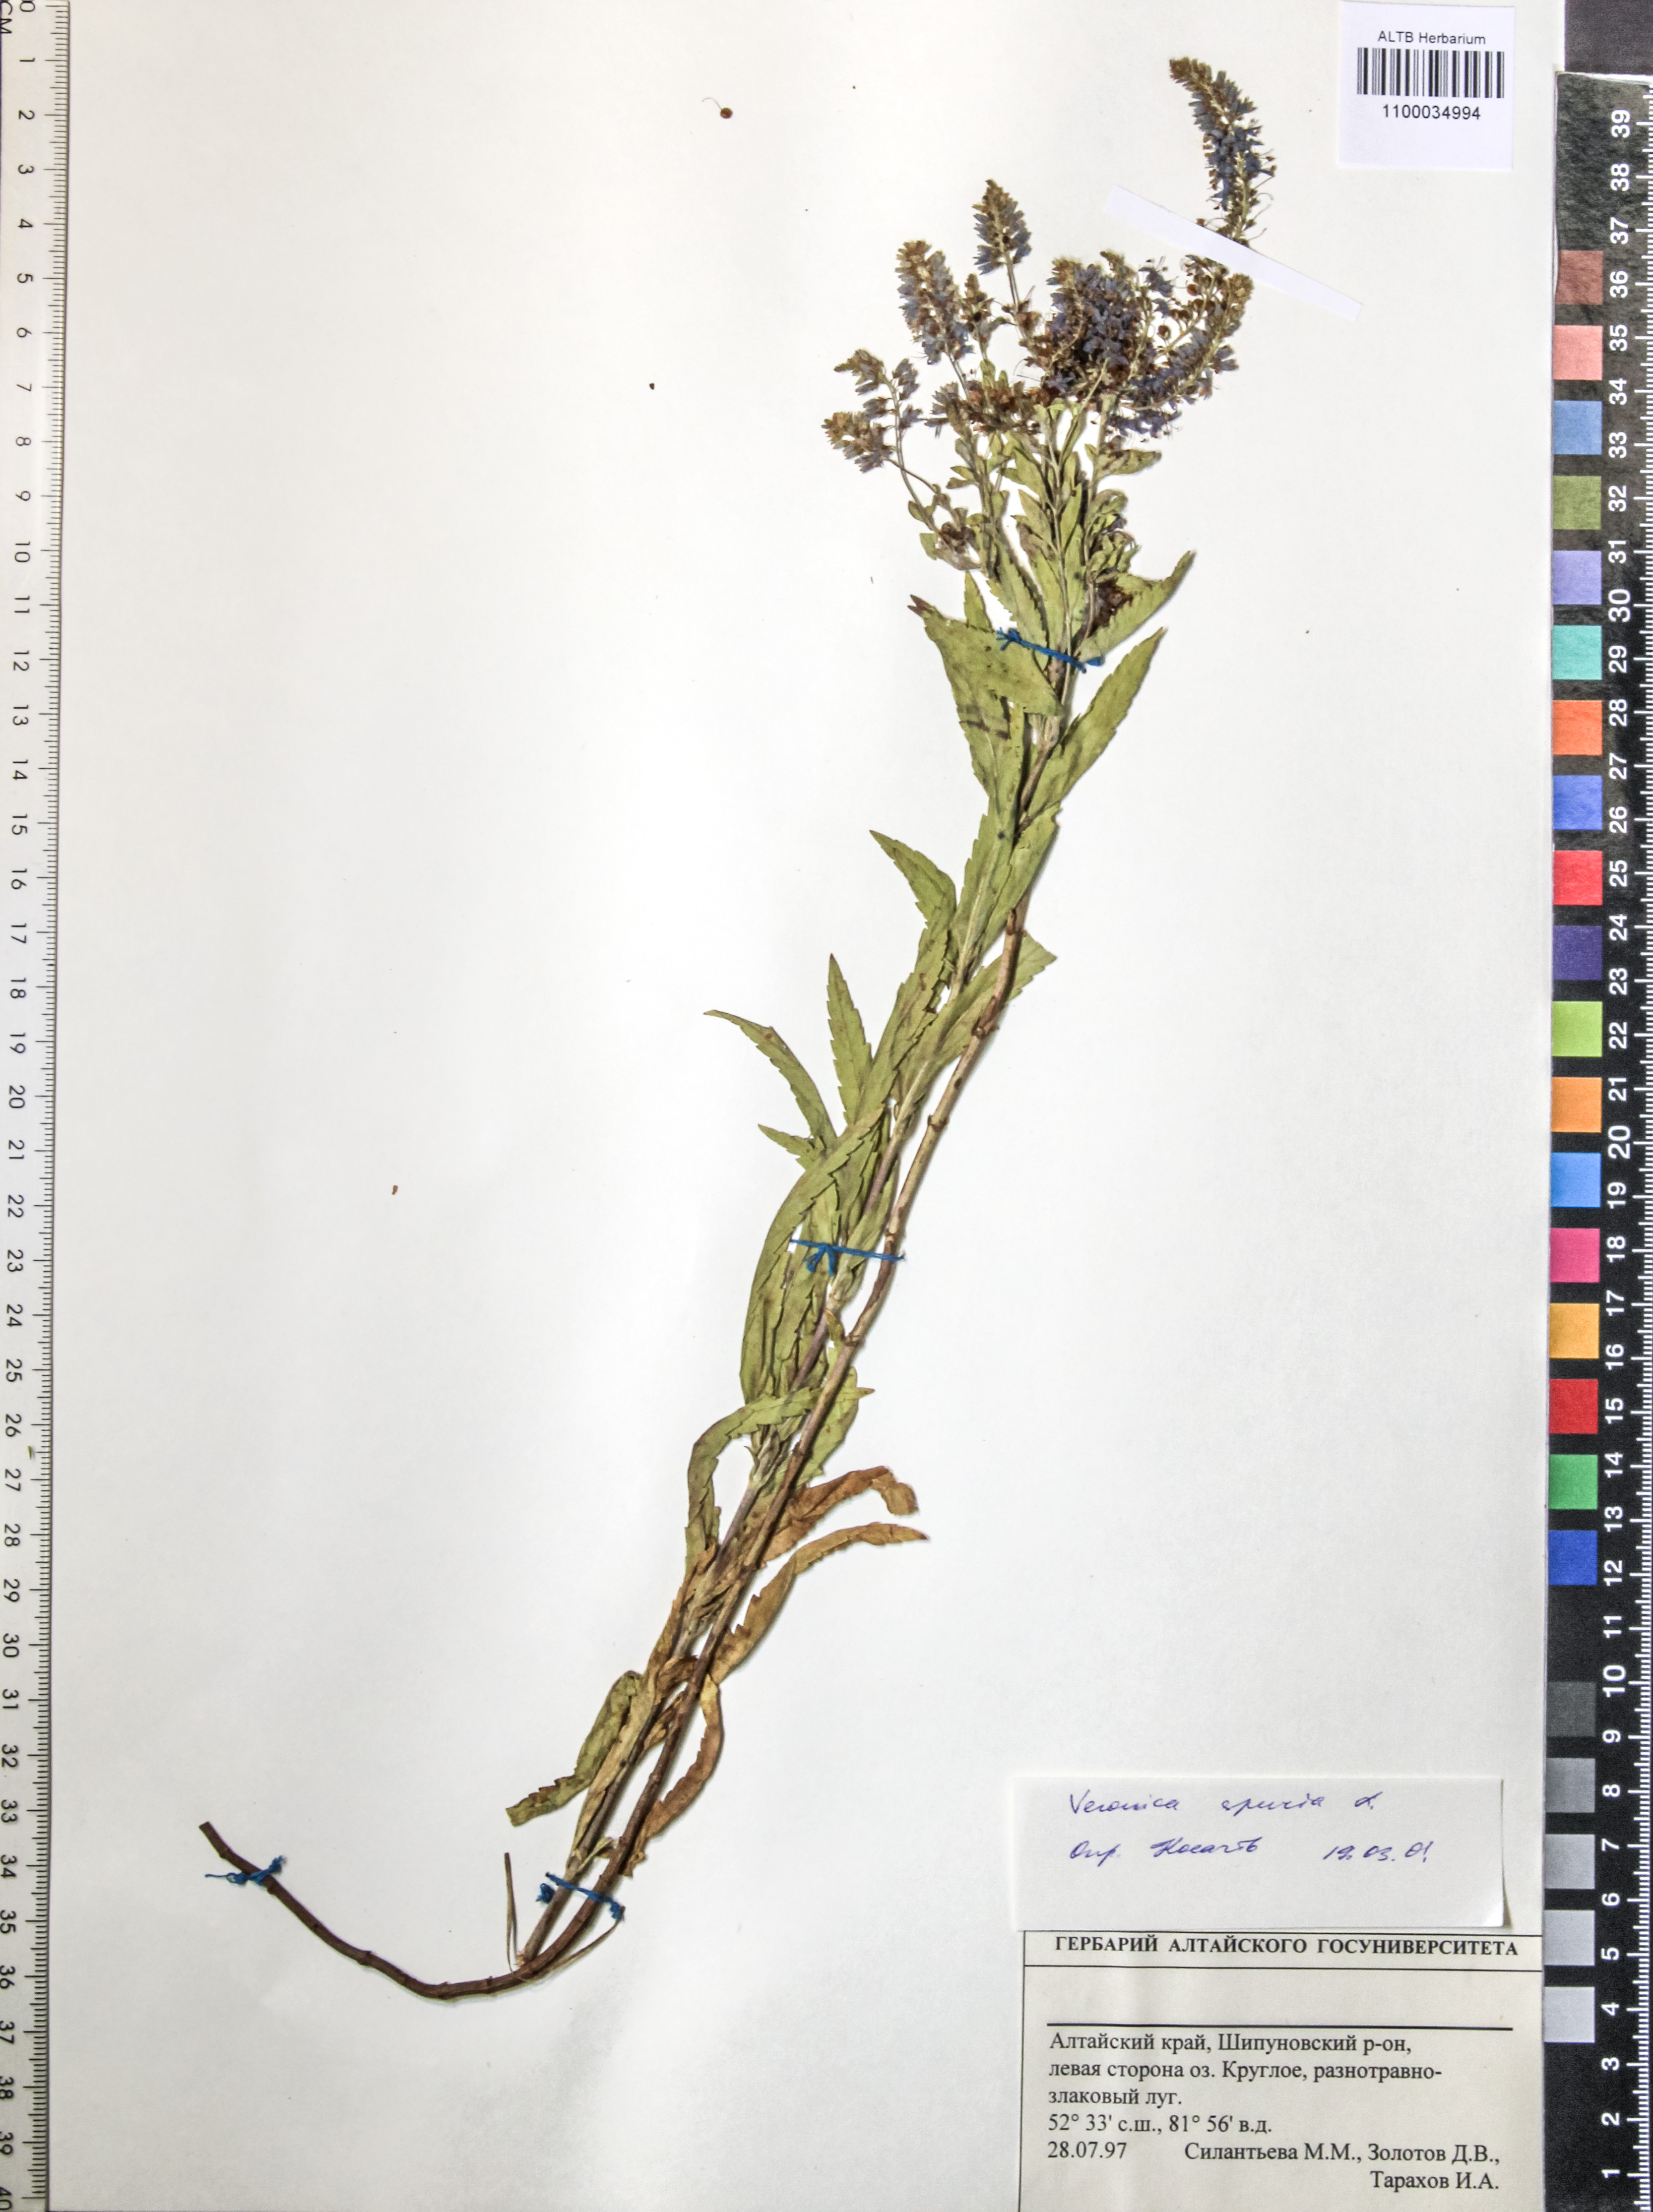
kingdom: Plantae
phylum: Tracheophyta
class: Magnoliopsida
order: Lamiales
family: Plantaginaceae
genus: Veronica
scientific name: Veronica spuria
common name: Bastard speedwell
